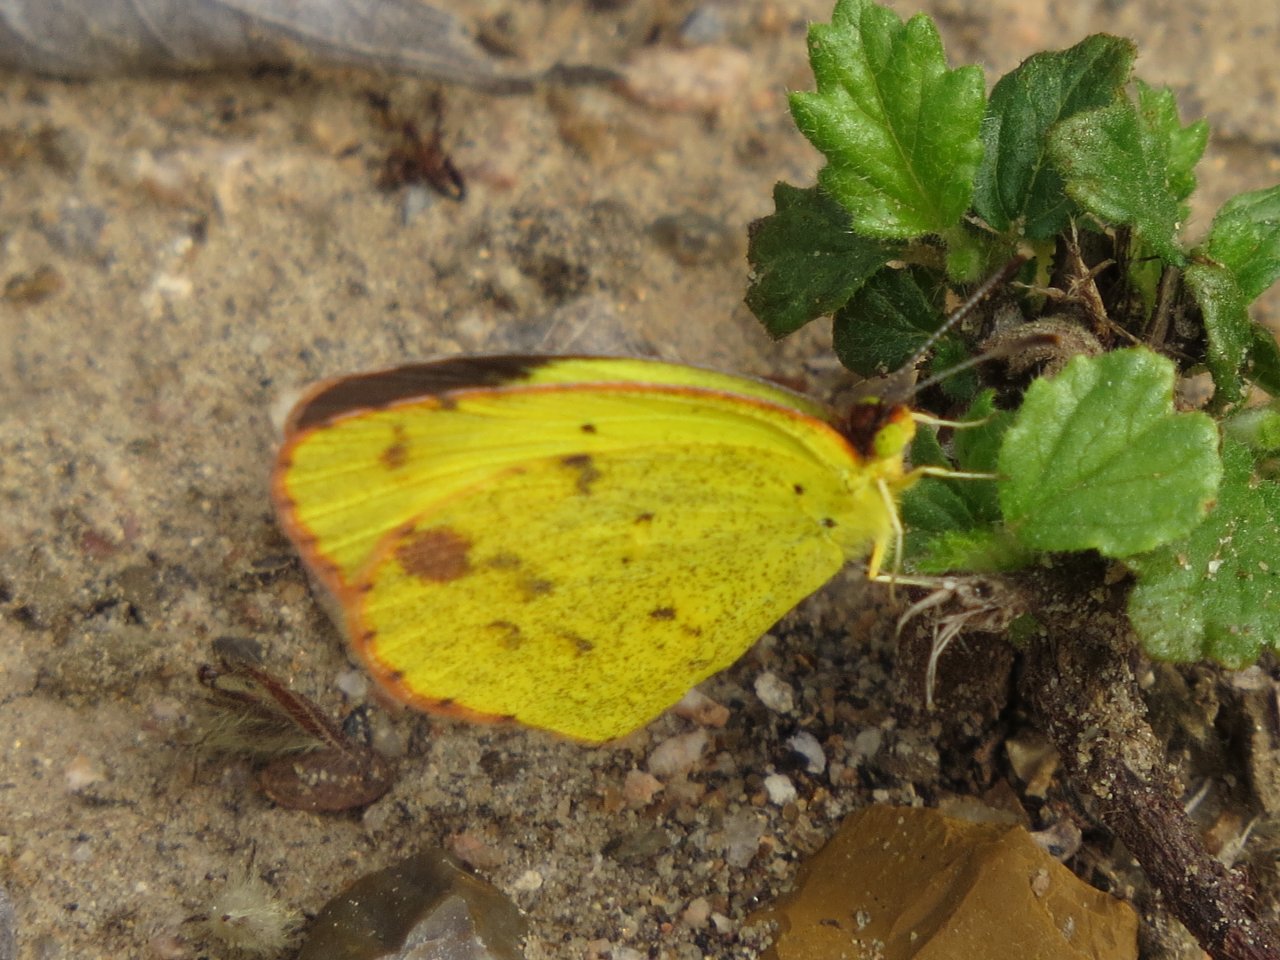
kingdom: Animalia
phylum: Arthropoda
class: Insecta
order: Lepidoptera
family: Pieridae
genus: Pyrisitia
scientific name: Pyrisitia lisa
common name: Little Yellow
